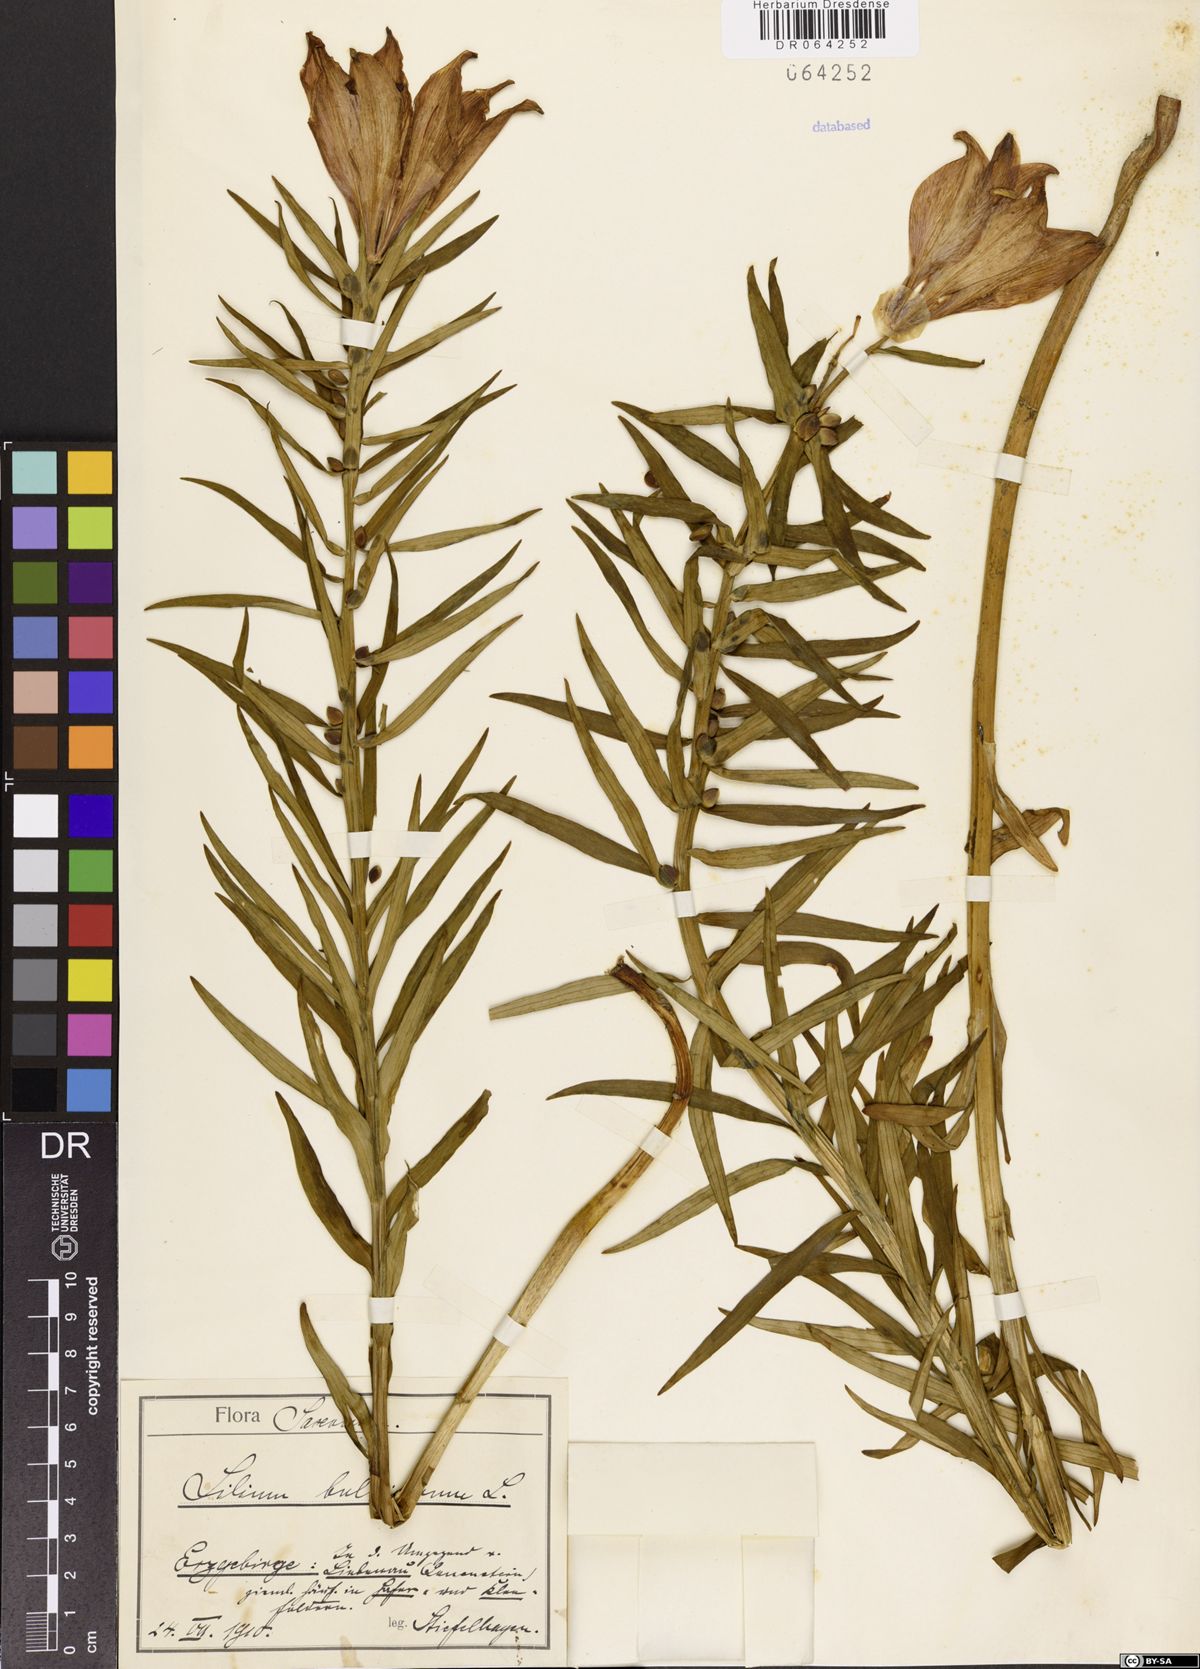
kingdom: Plantae
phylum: Tracheophyta
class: Liliopsida
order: Liliales
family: Liliaceae
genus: Lilium
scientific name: Lilium bulbiferum
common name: Orange lily
